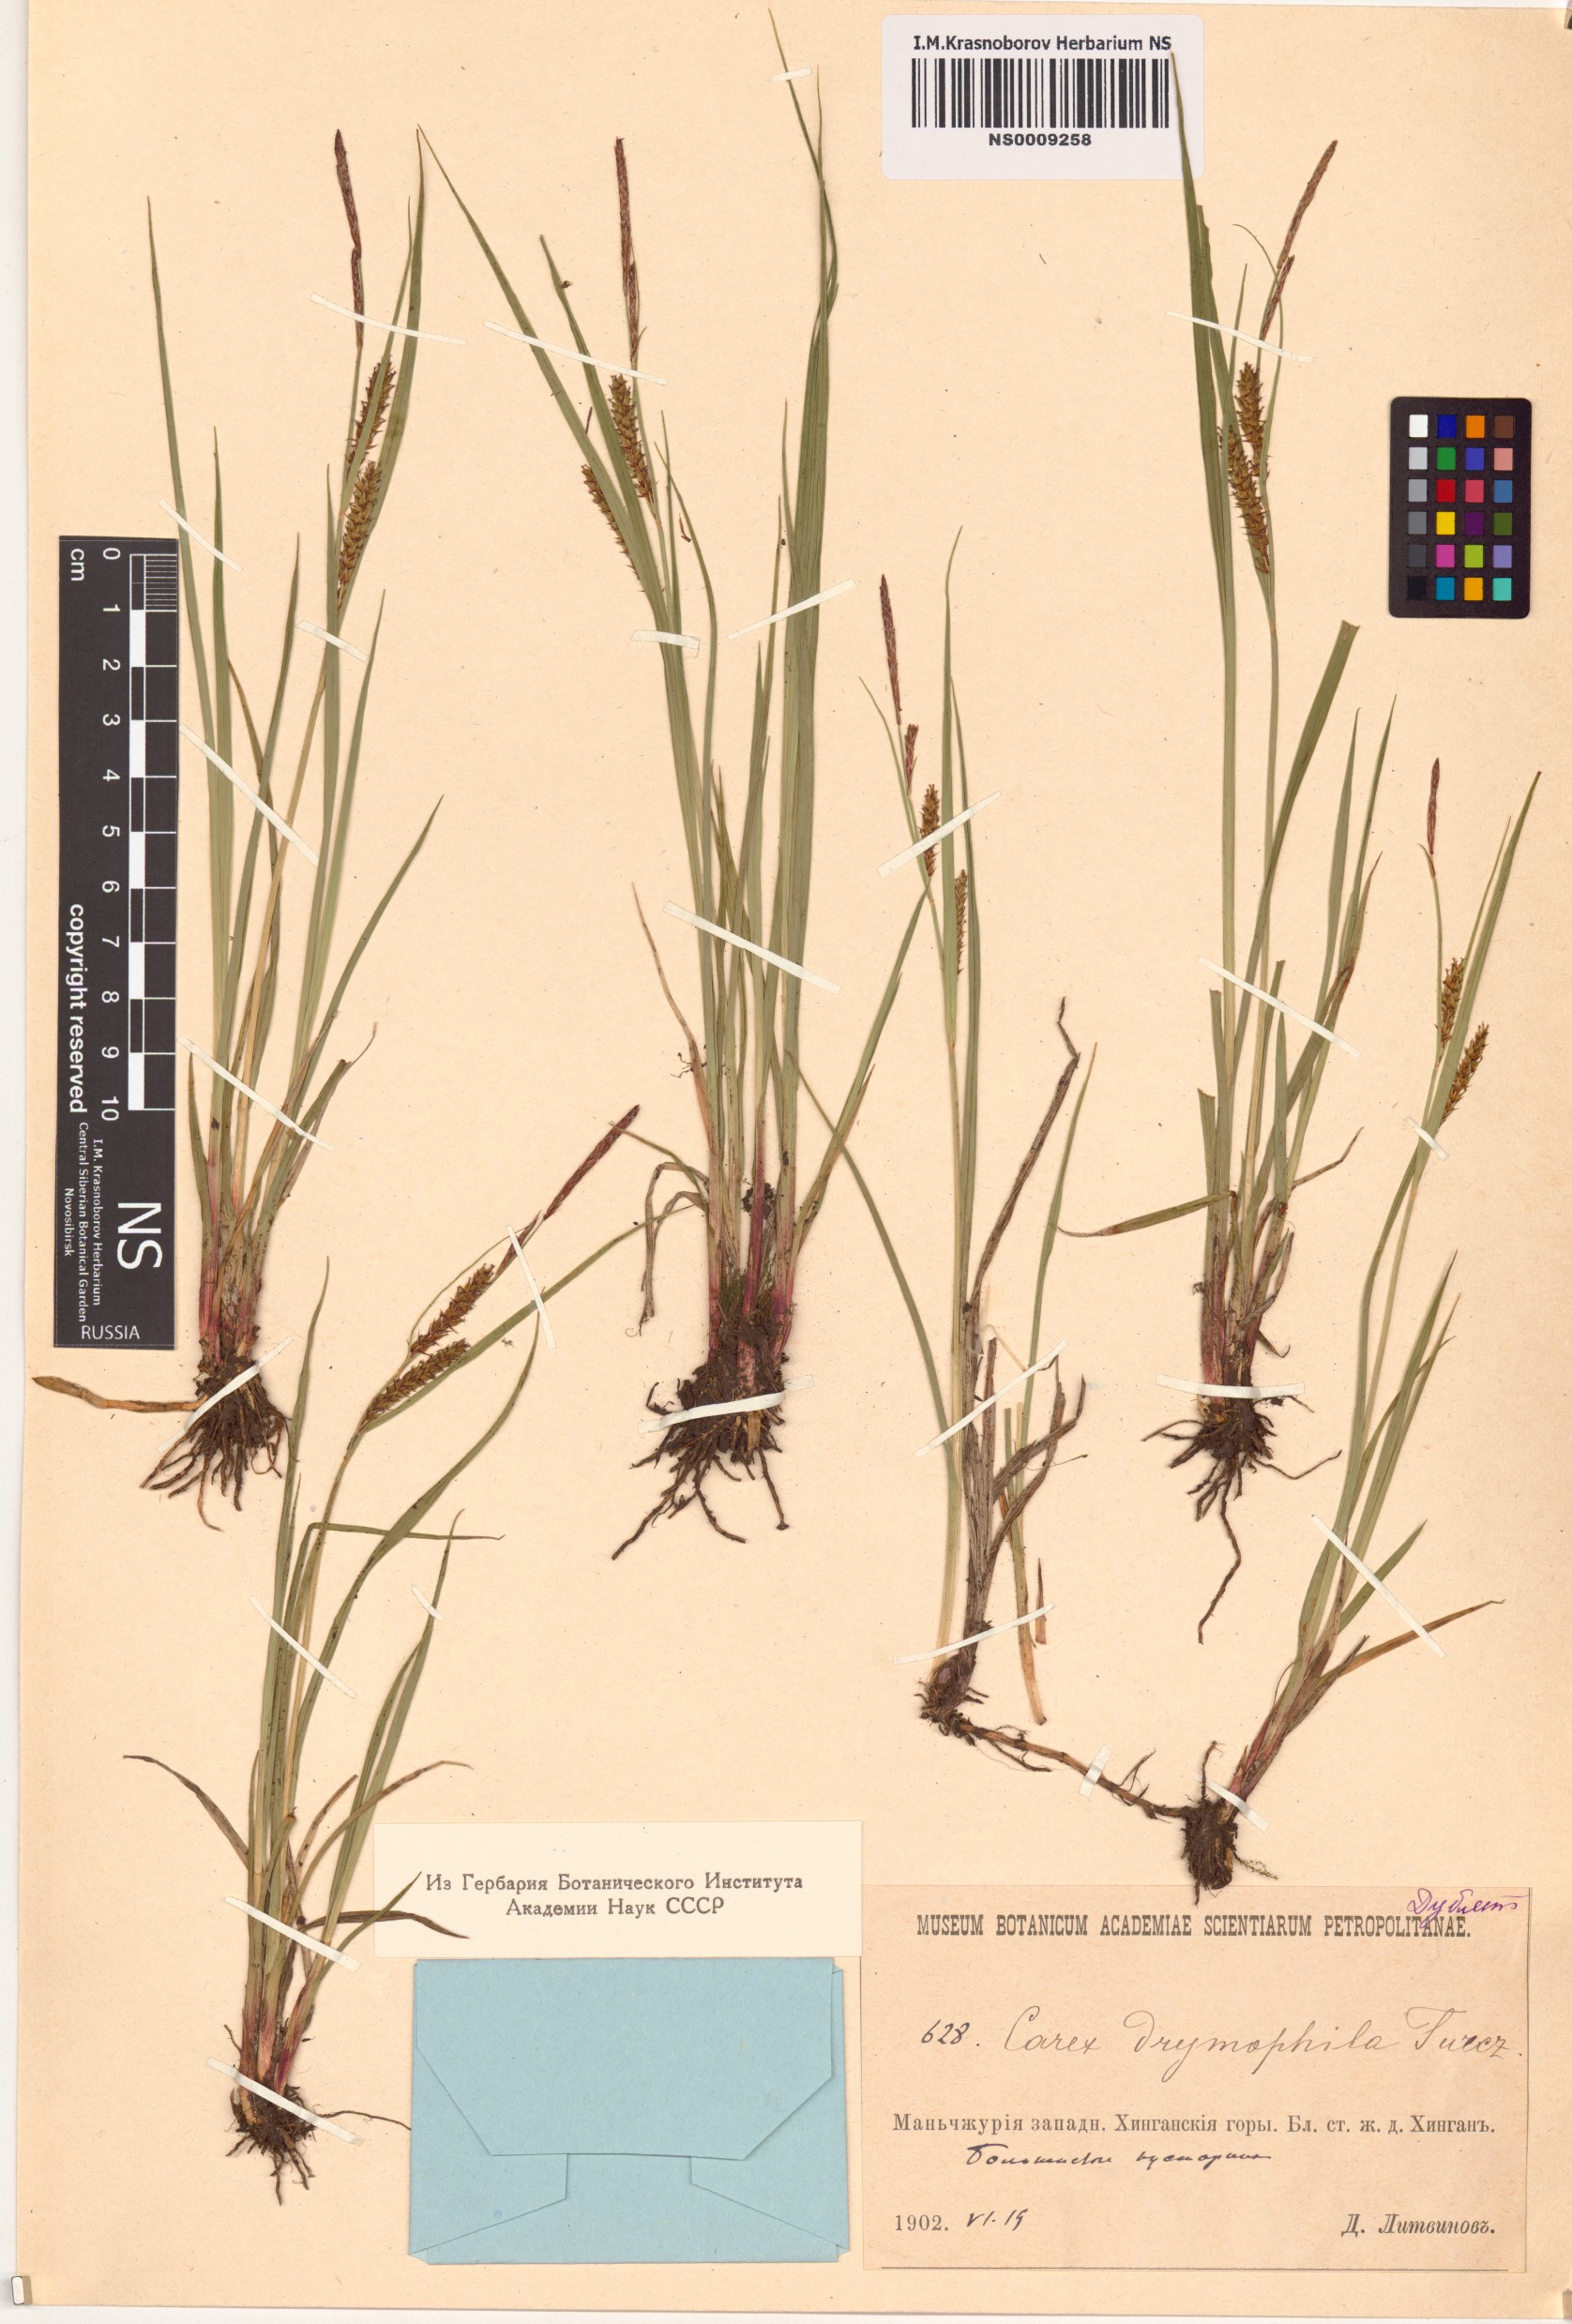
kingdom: Plantae
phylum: Tracheophyta
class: Liliopsida
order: Poales
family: Cyperaceae
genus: Carex
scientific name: Carex drymophila
